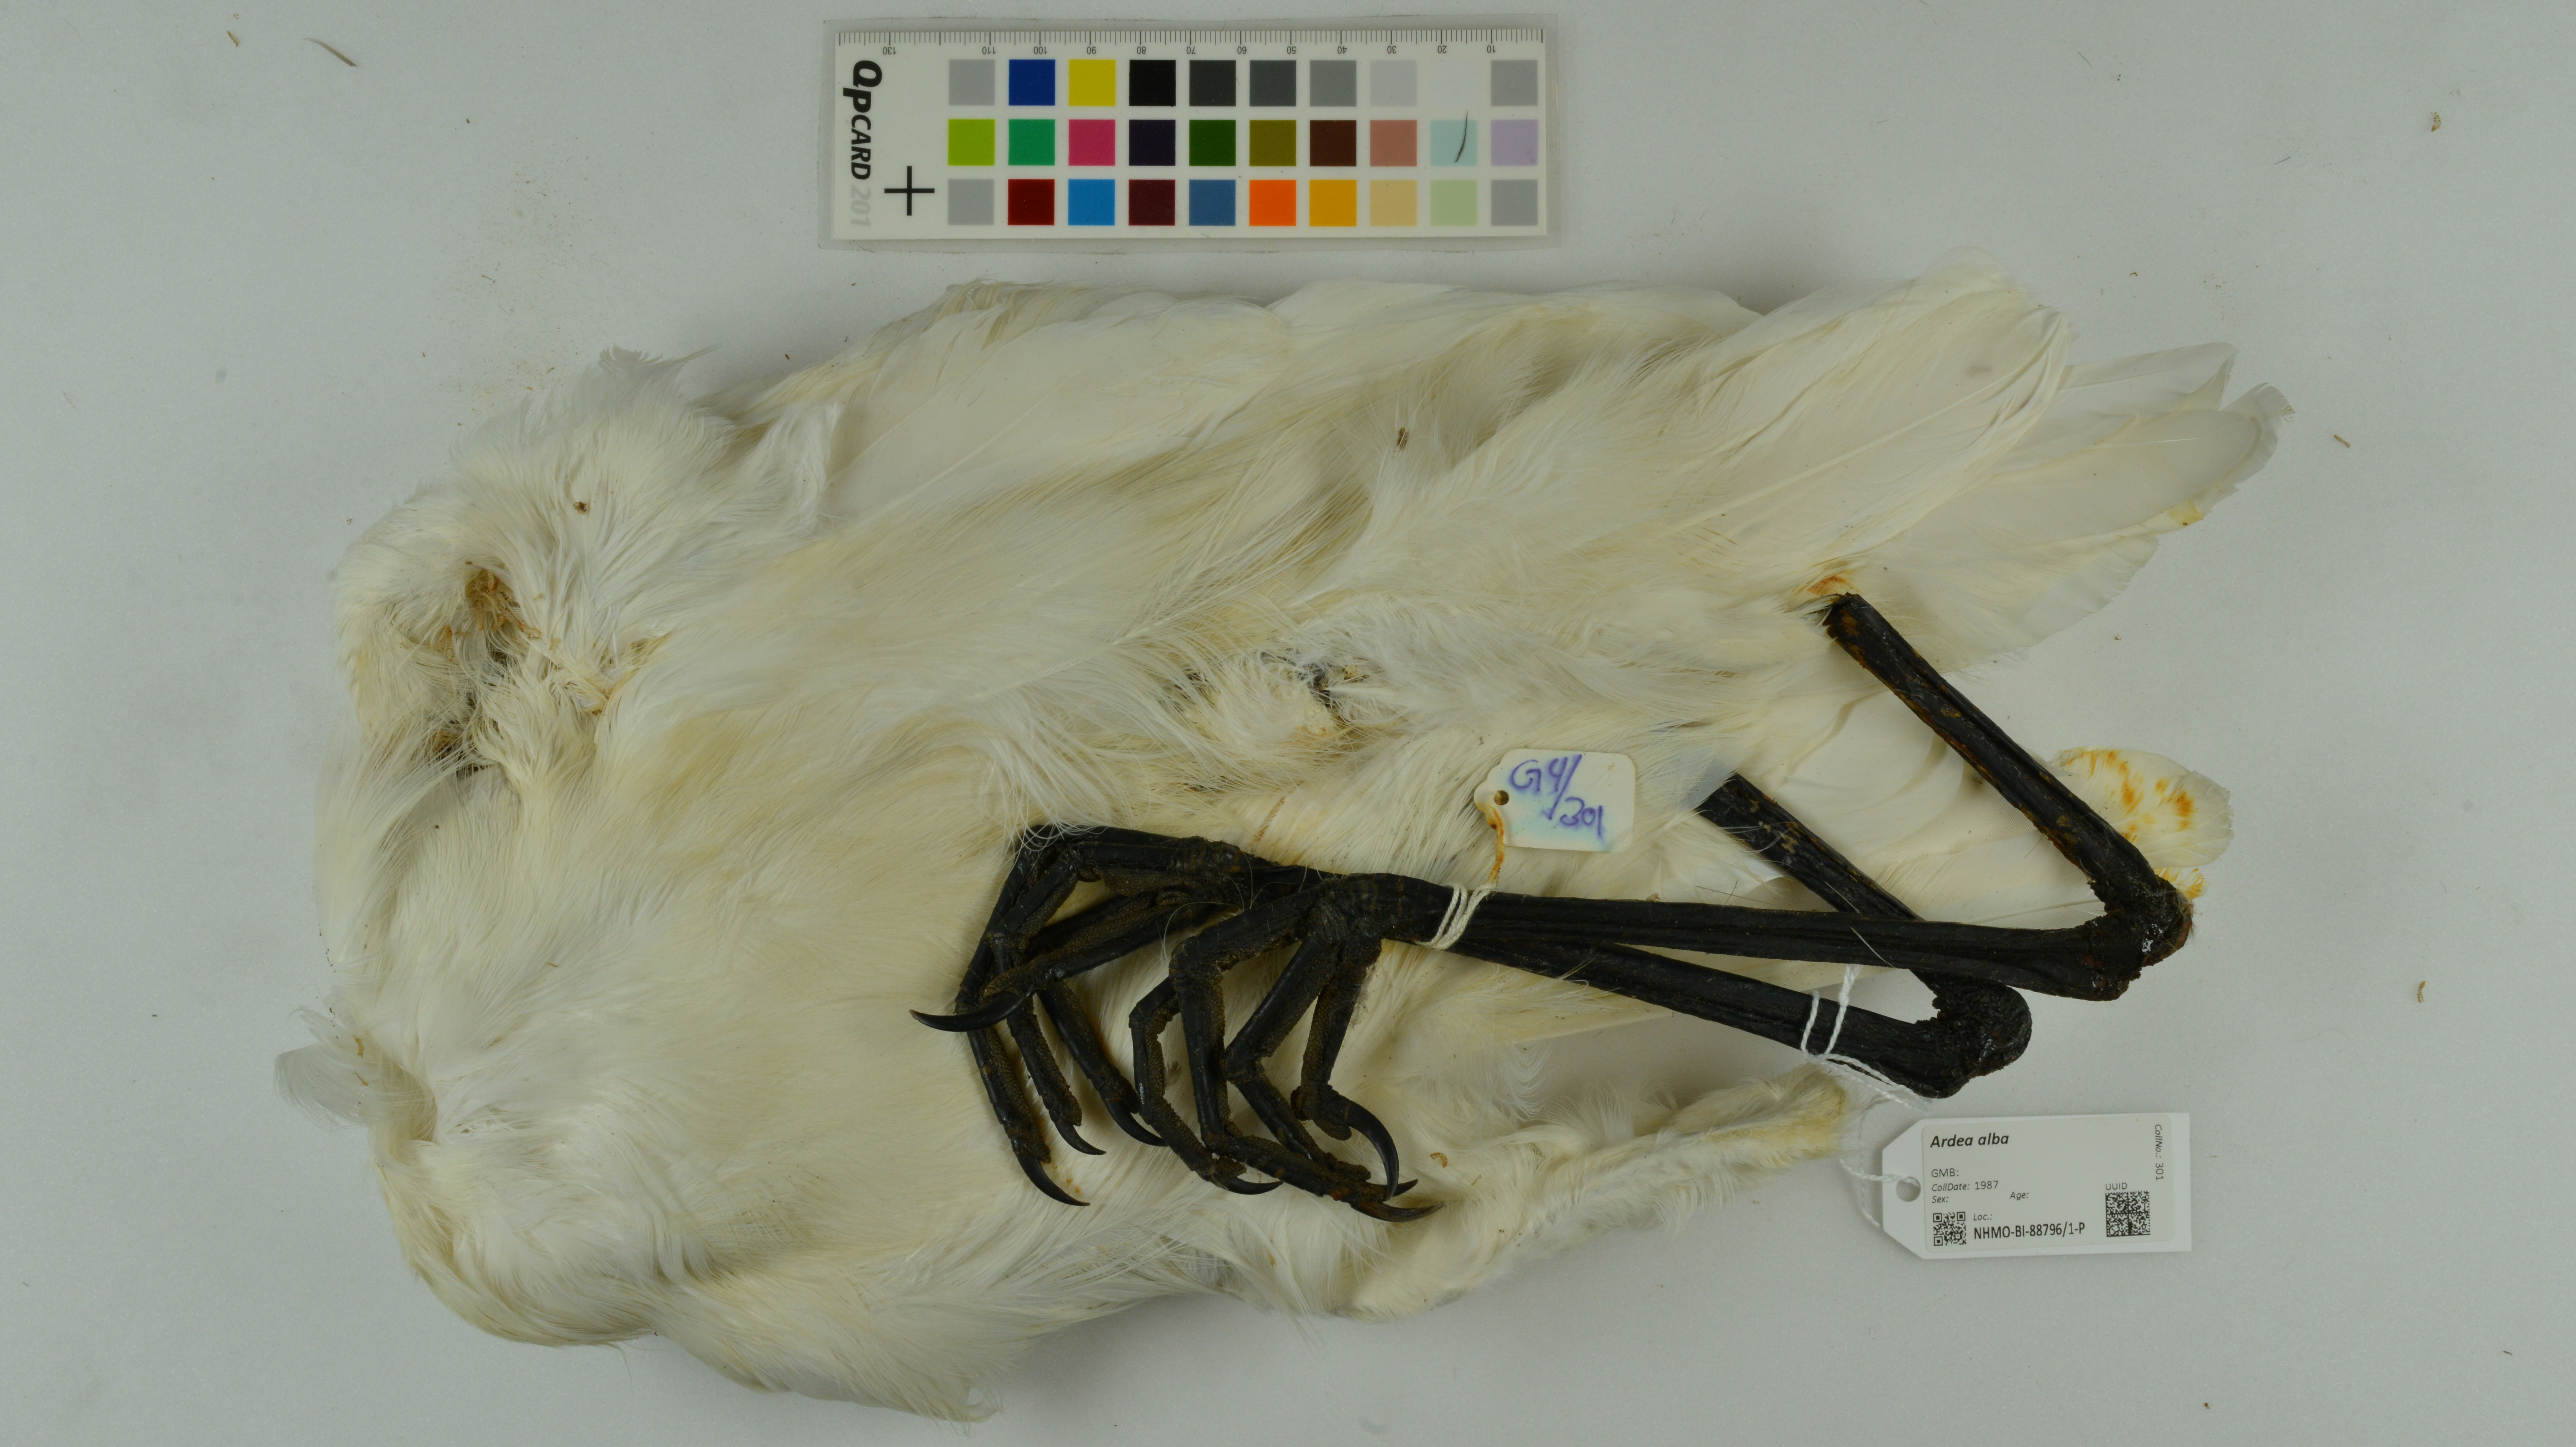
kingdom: Animalia
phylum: Chordata
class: Aves
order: Pelecaniformes
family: Ardeidae
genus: Ardea
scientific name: Ardea alba
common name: Great egret
